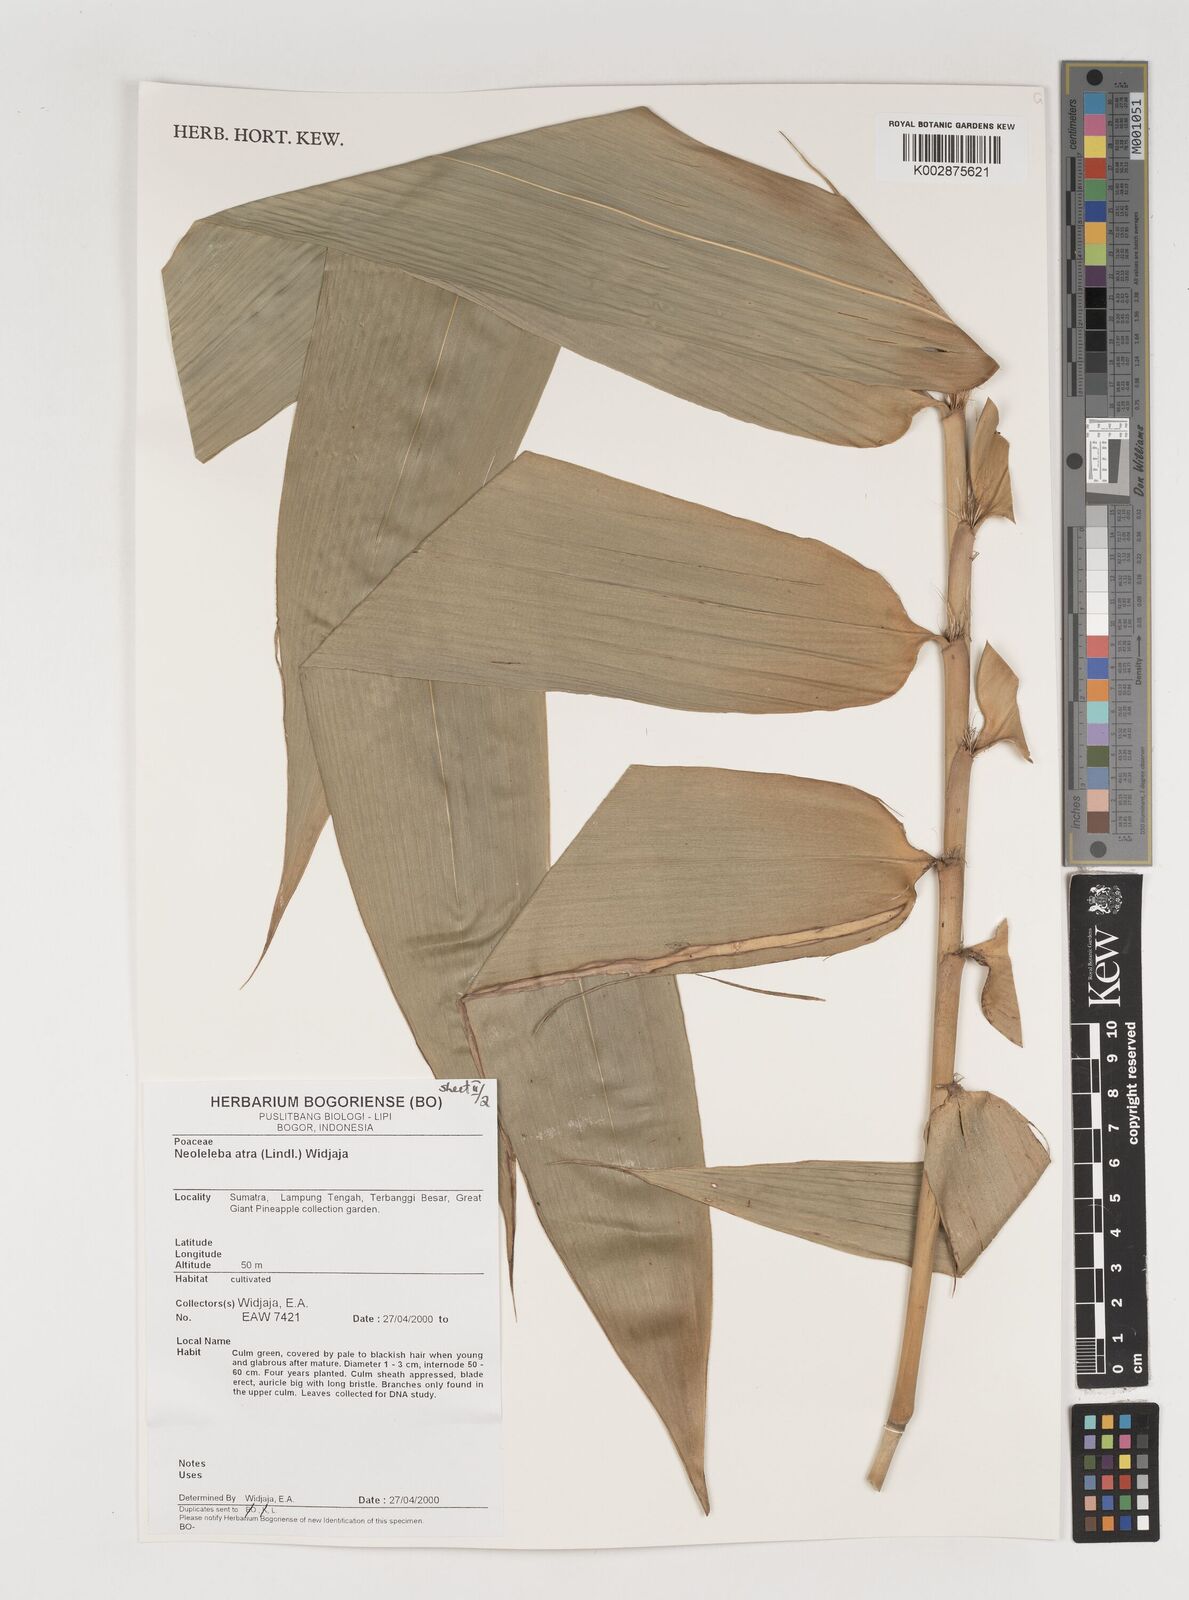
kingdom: Plantae
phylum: Tracheophyta
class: Liliopsida
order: Poales
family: Poaceae
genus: Neololeba
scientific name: Neololeba atra
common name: Cape bamboo
